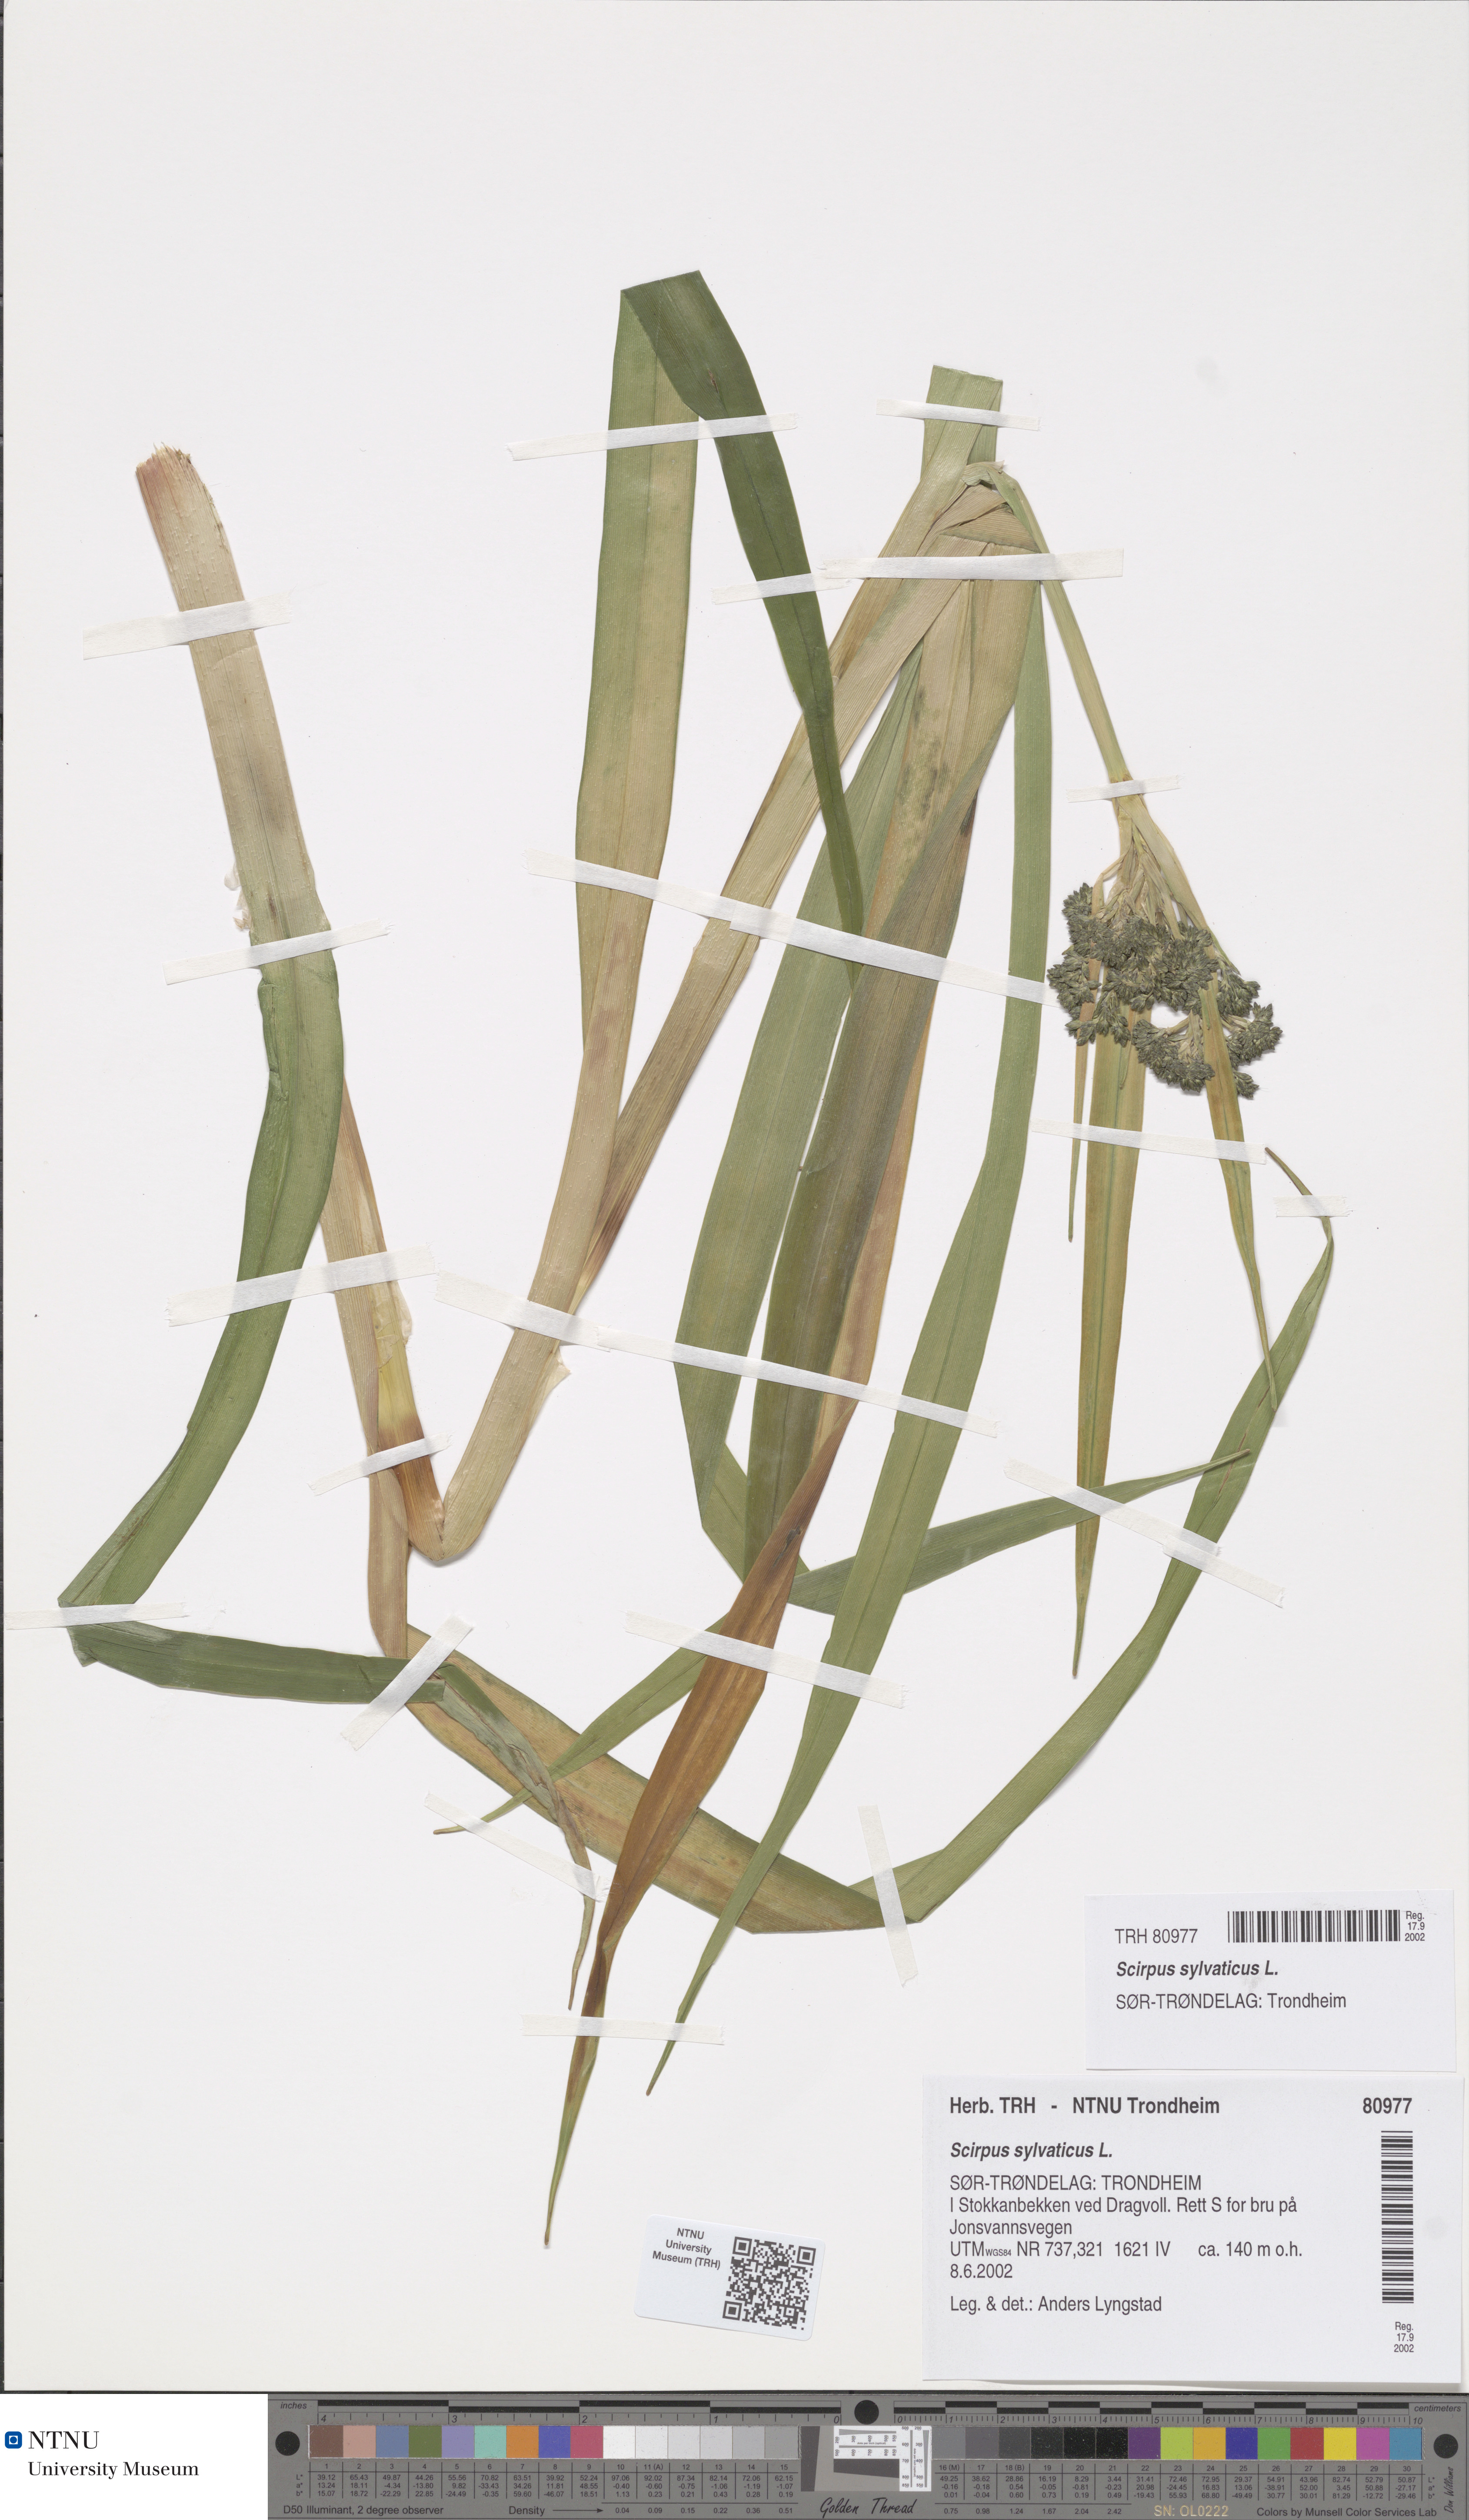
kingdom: Plantae
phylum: Tracheophyta
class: Liliopsida
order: Poales
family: Cyperaceae
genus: Scirpus
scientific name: Scirpus sylvaticus
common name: Wood club-rush
